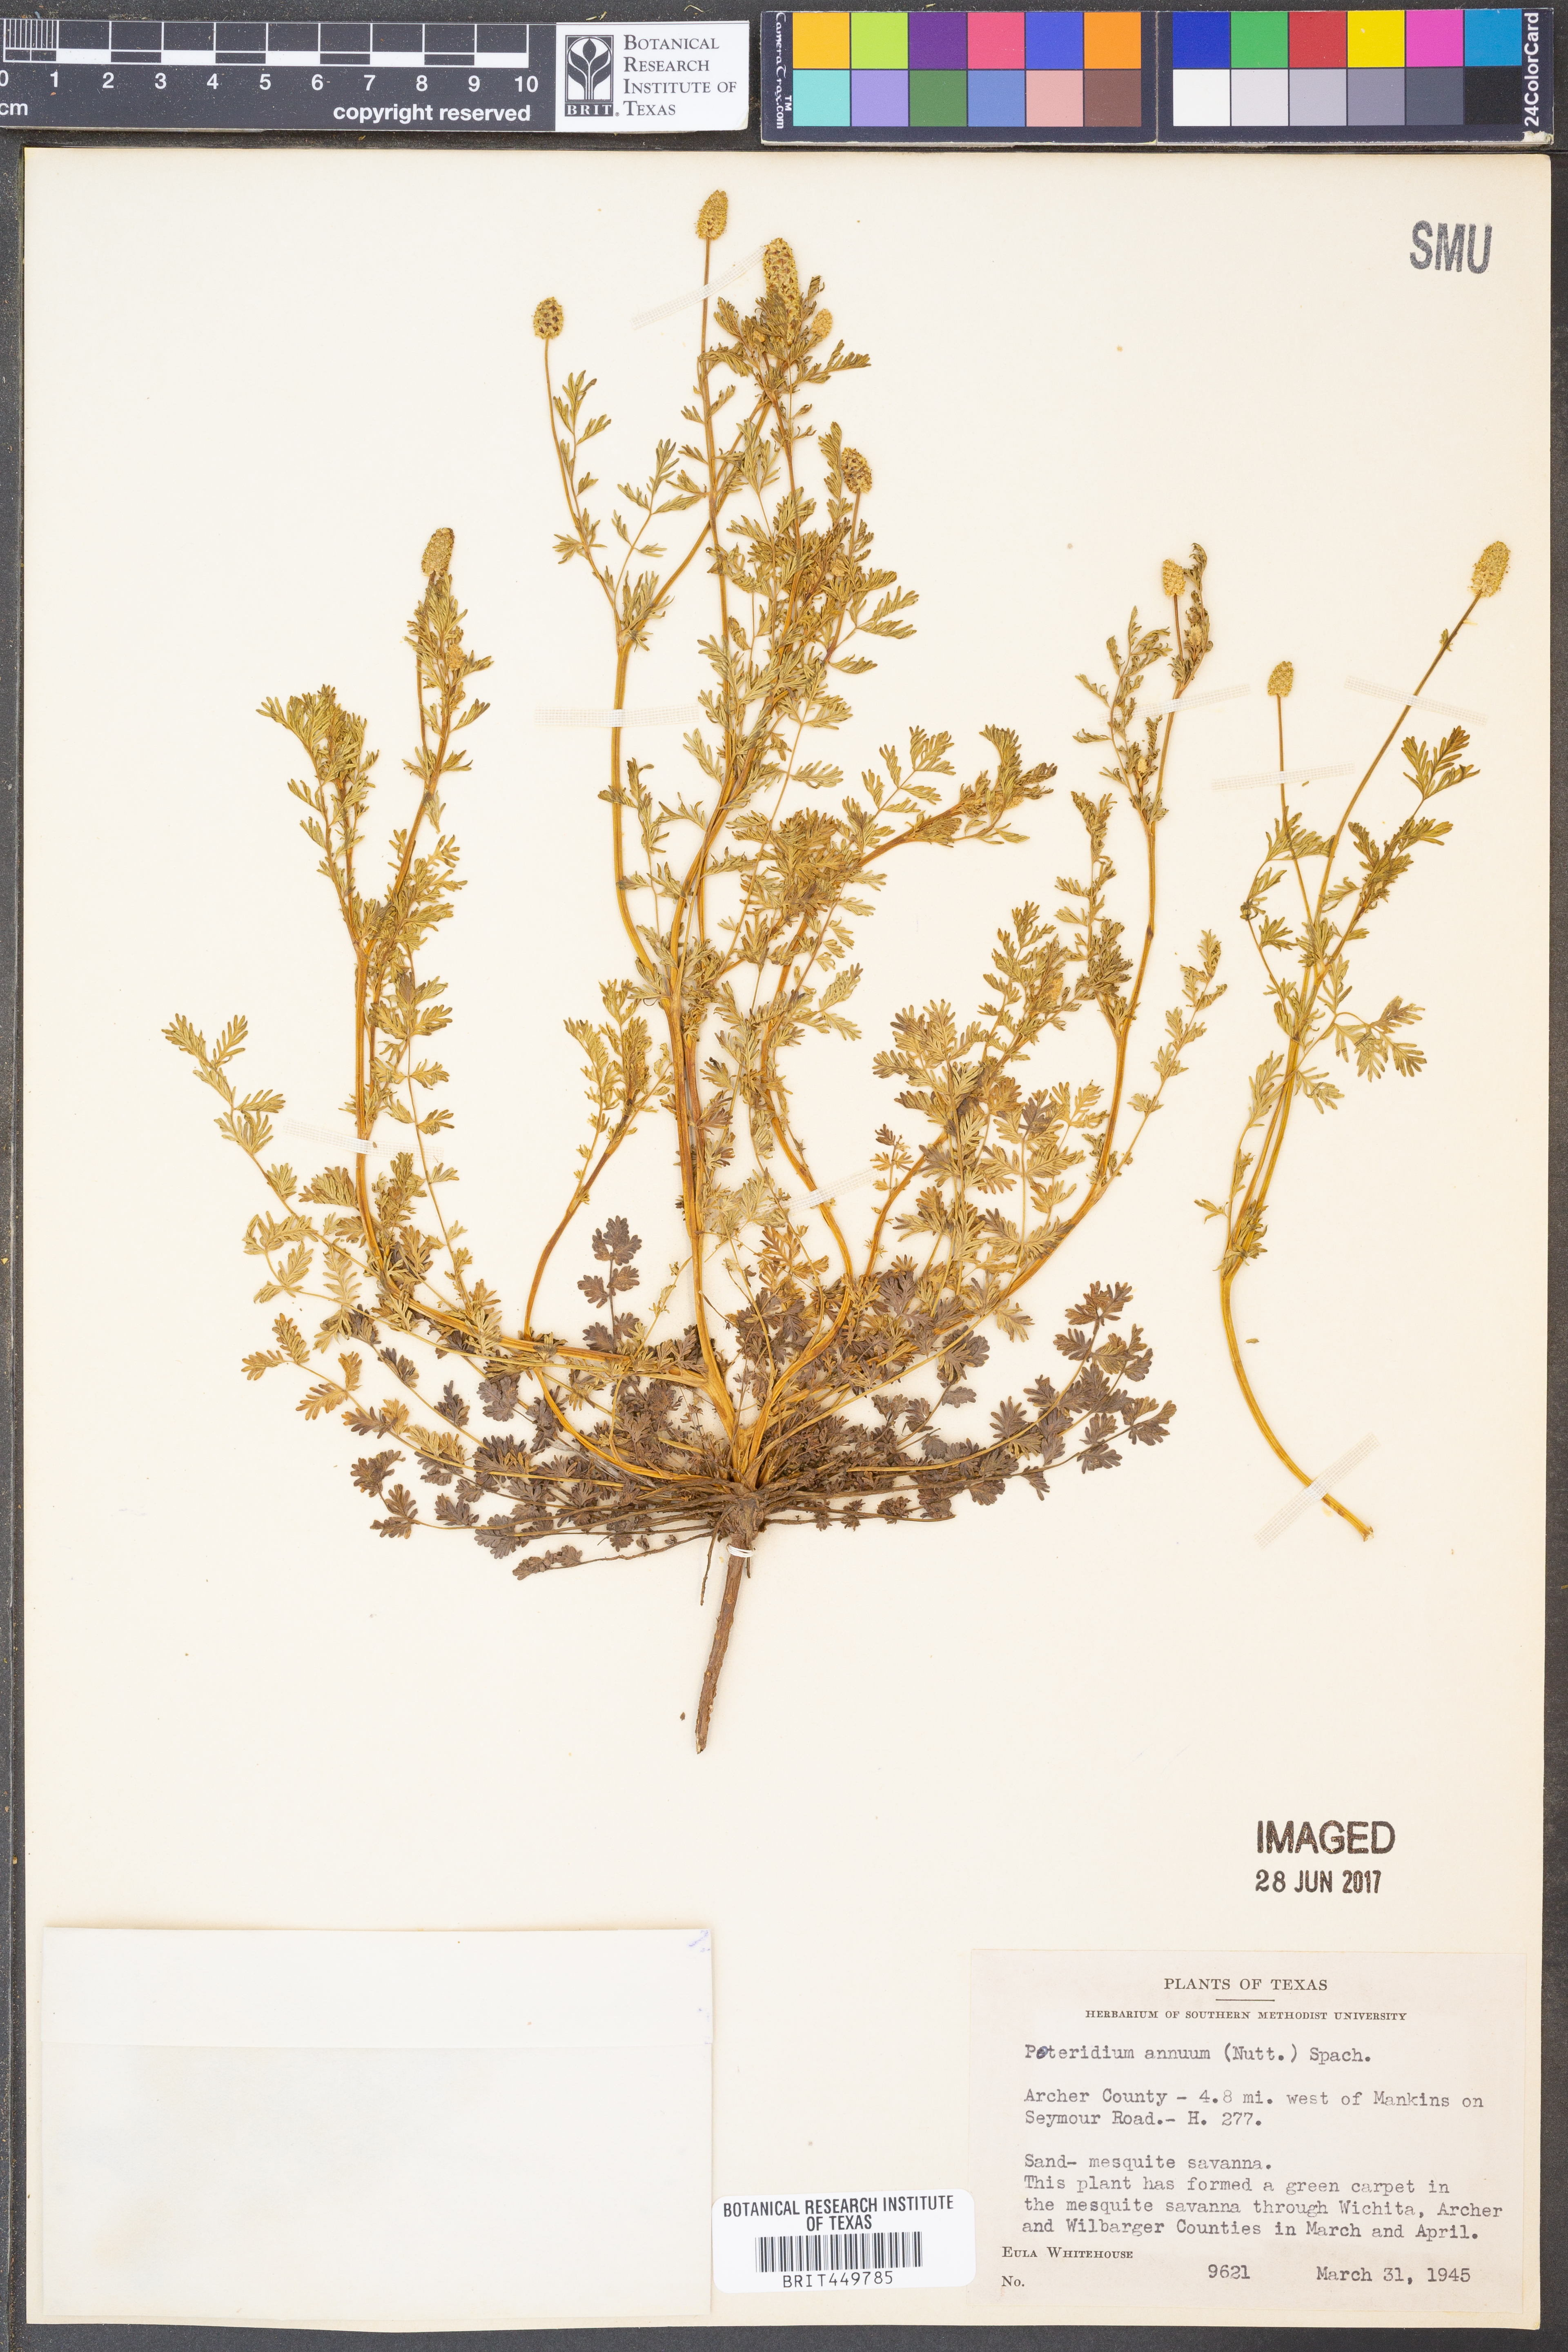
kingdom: Plantae
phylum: Tracheophyta
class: Magnoliopsida
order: Rosales
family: Rosaceae
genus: Poteridium
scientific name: Poteridium annuum
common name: Annual burnet
